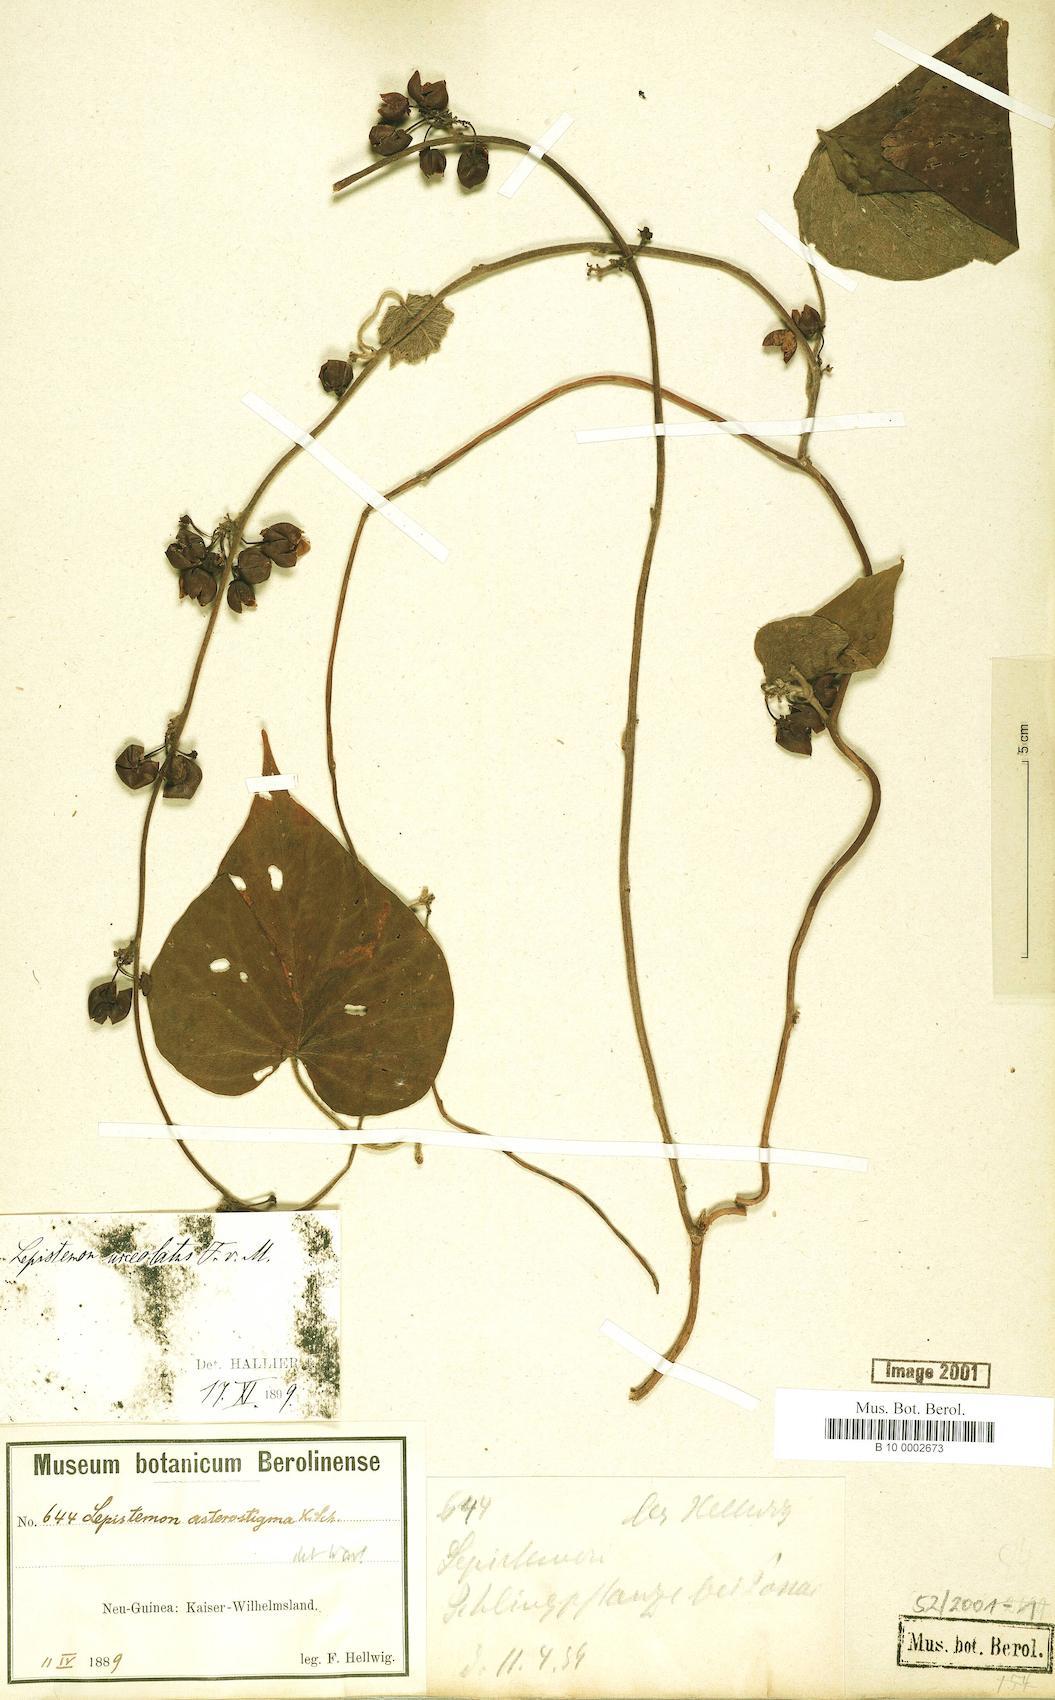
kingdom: Plantae
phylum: Tracheophyta
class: Magnoliopsida
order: Solanales
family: Convolvulaceae
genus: Lepistemon
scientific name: Lepistemon urceolatus
